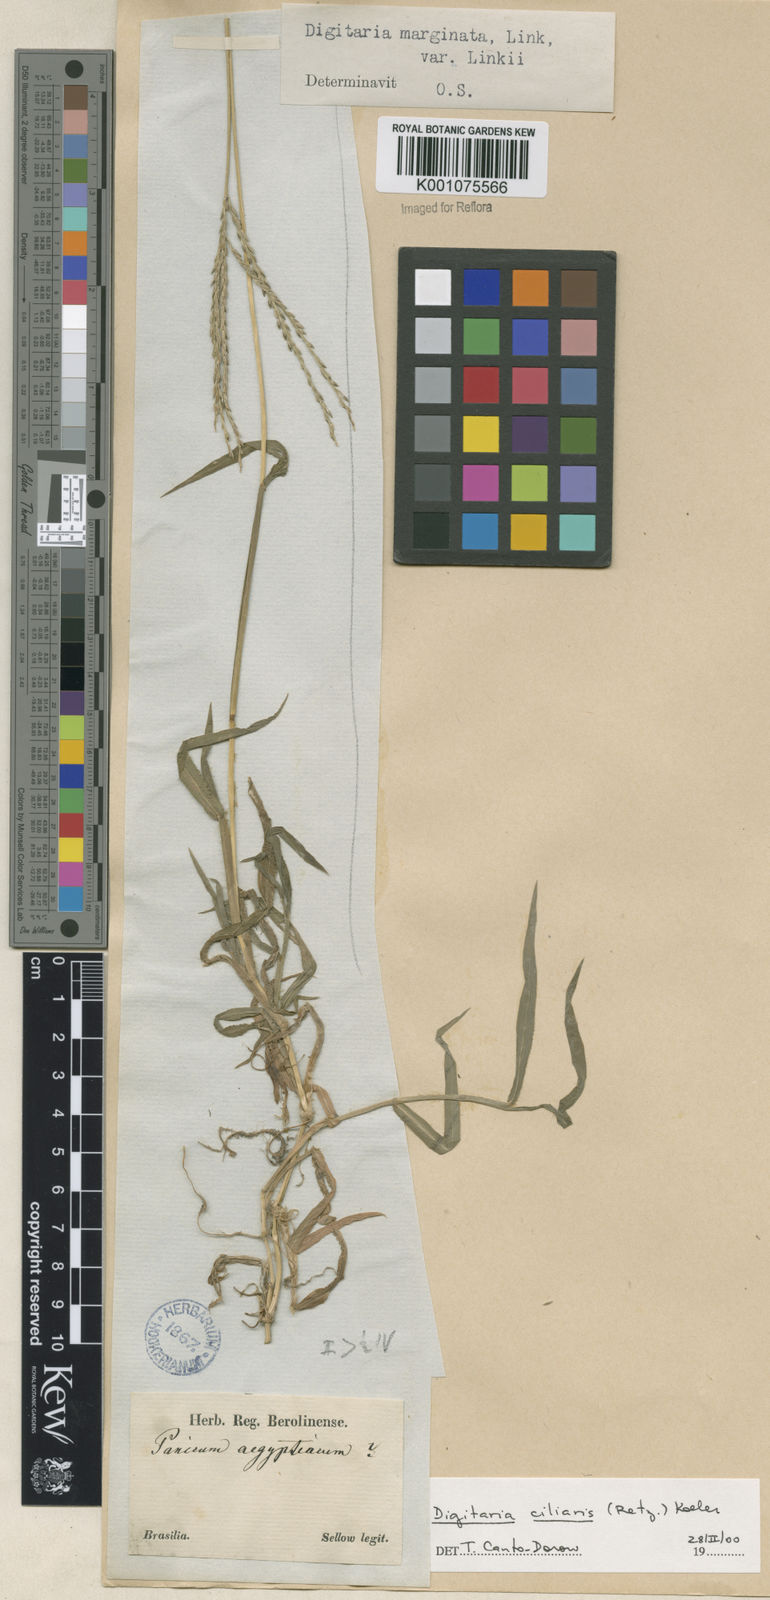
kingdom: Plantae
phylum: Tracheophyta
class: Liliopsida
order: Poales
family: Poaceae
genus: Digitaria
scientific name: Digitaria ciliaris
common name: Tropical finger-grass
